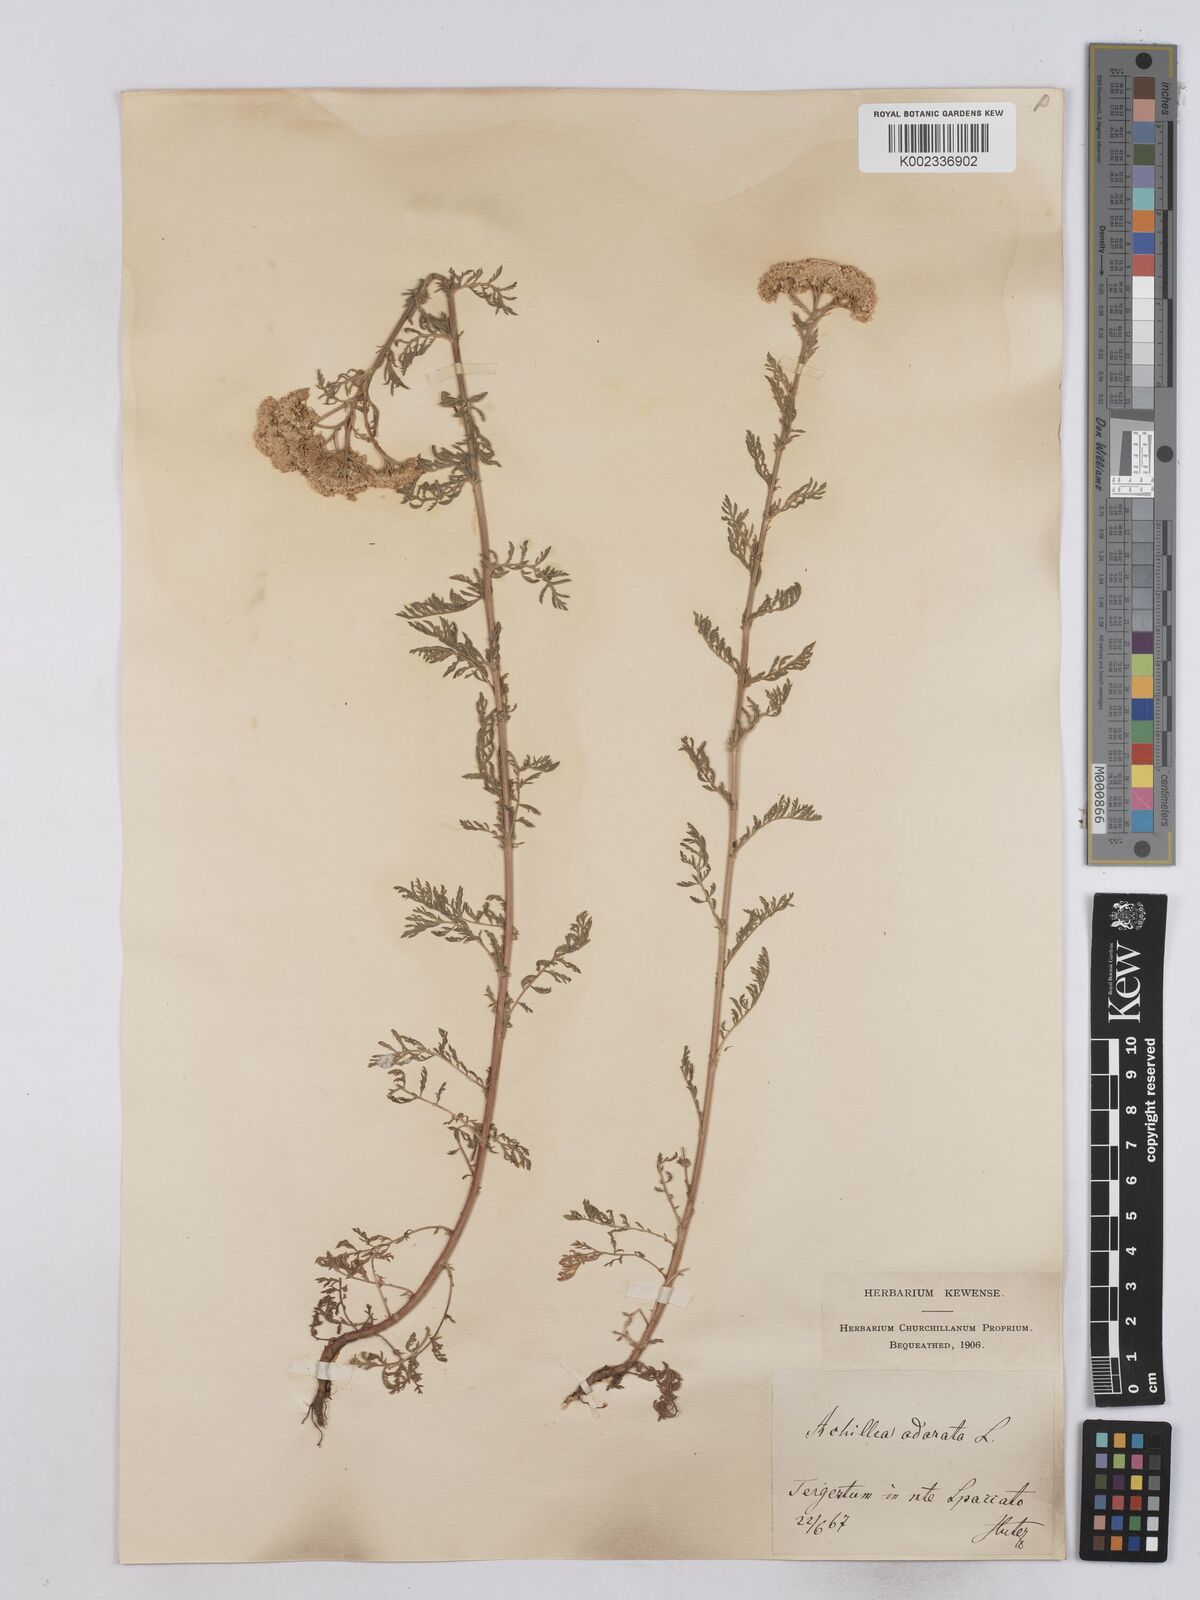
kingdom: Plantae
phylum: Tracheophyta
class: Magnoliopsida
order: Asterales
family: Asteraceae
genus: Achillea
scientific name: Achillea odorata
